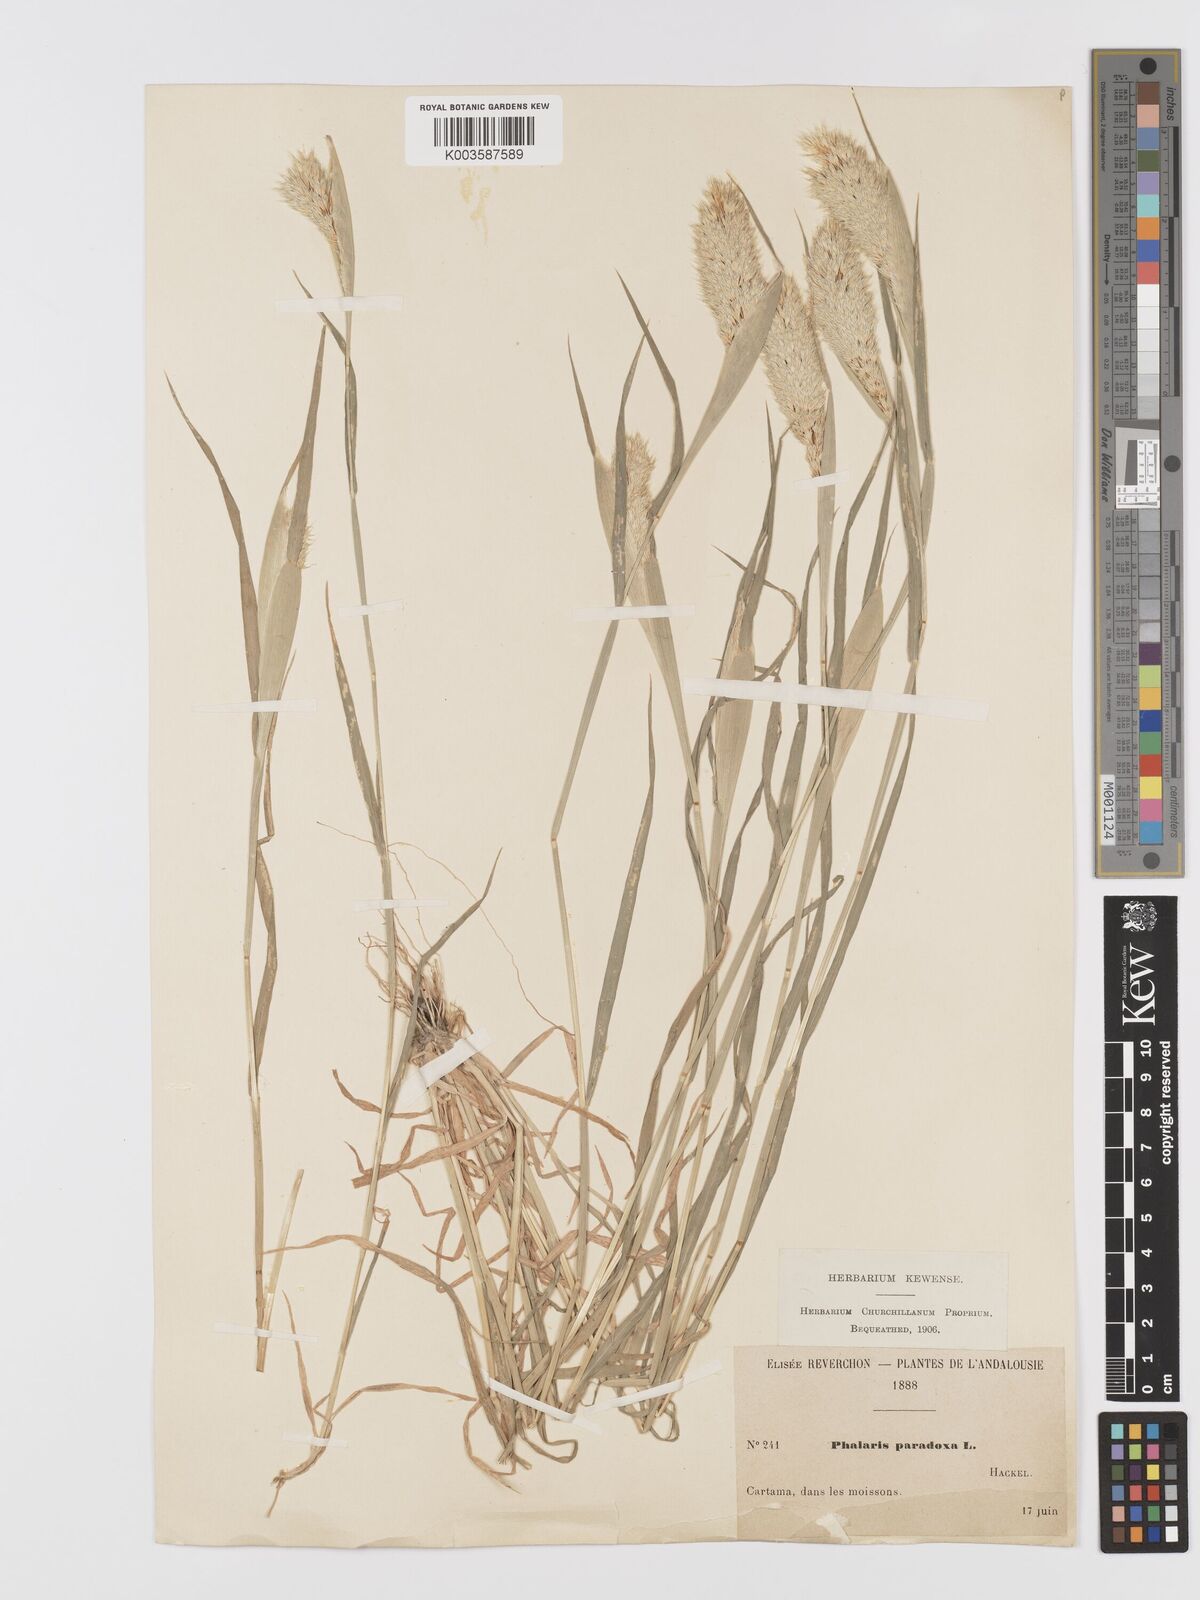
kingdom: Plantae
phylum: Tracheophyta
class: Liliopsida
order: Poales
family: Poaceae
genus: Phalaris
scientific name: Phalaris paradoxa
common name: Awned canary-grass
